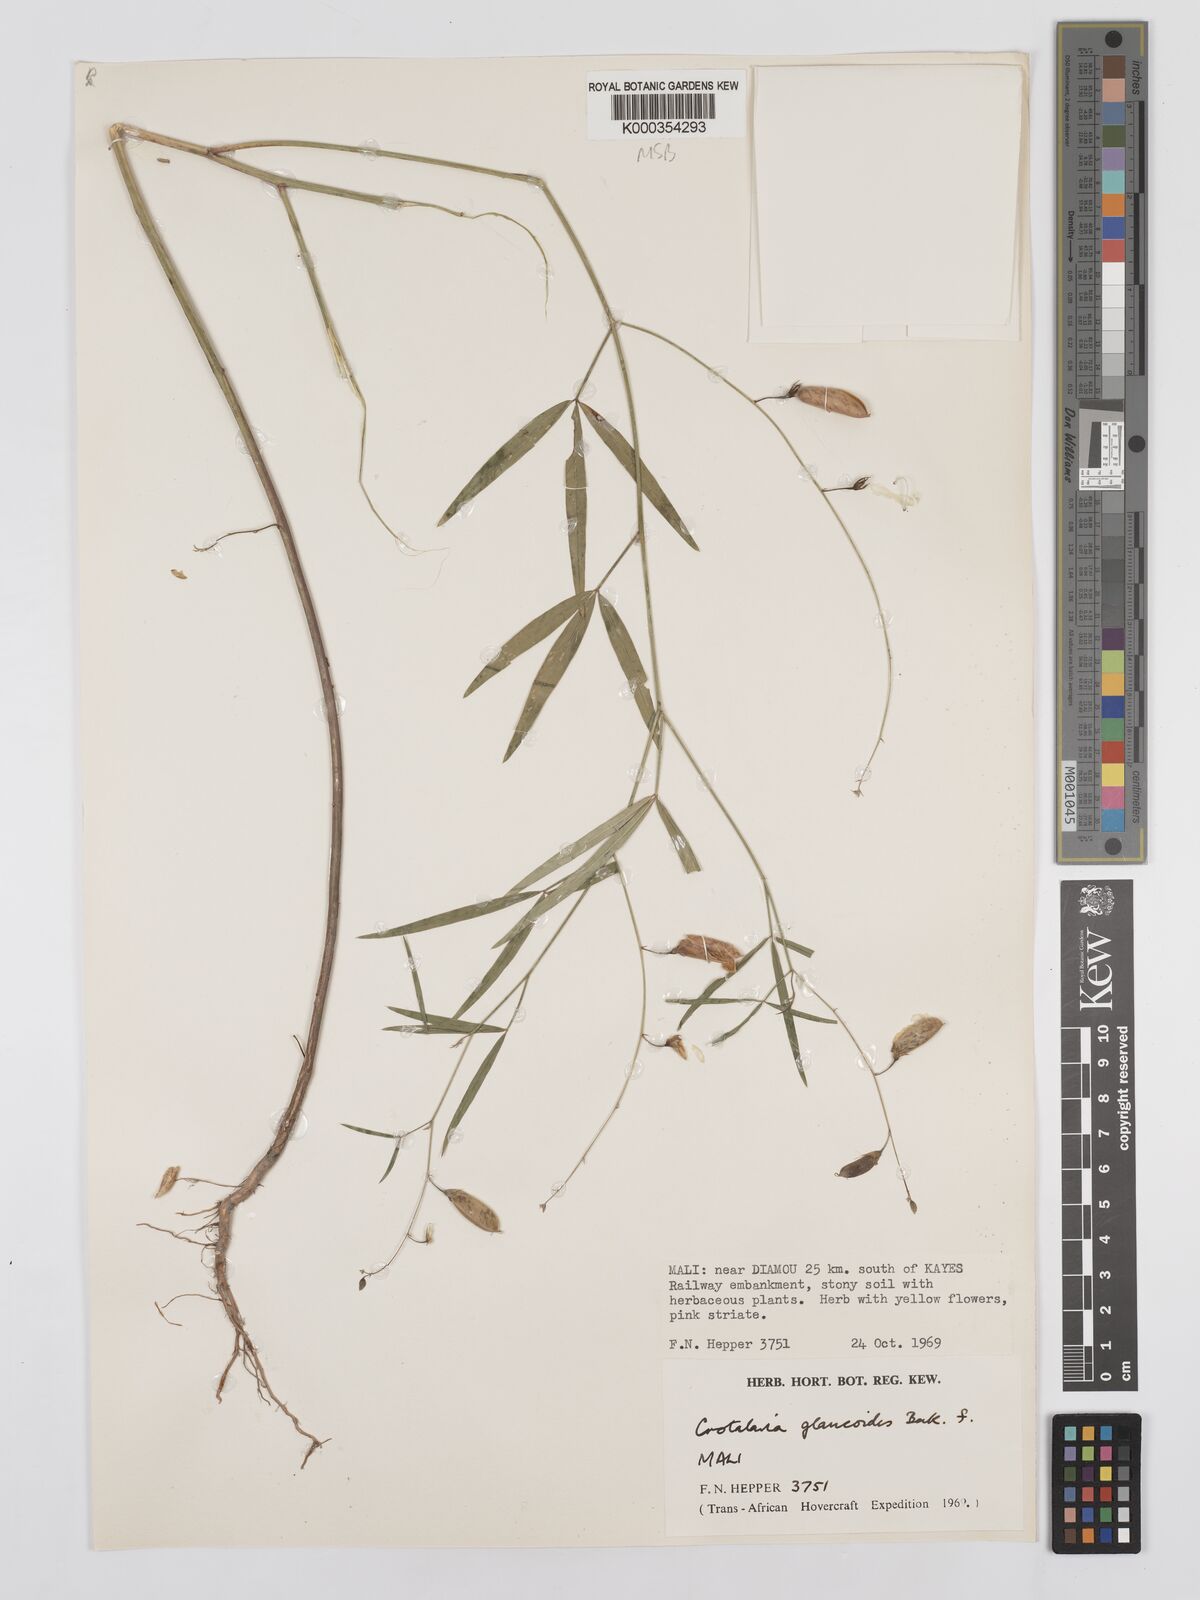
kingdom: Plantae
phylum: Tracheophyta
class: Magnoliopsida
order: Fabales
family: Fabaceae
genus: Crotalaria
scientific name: Crotalaria glaucoides
